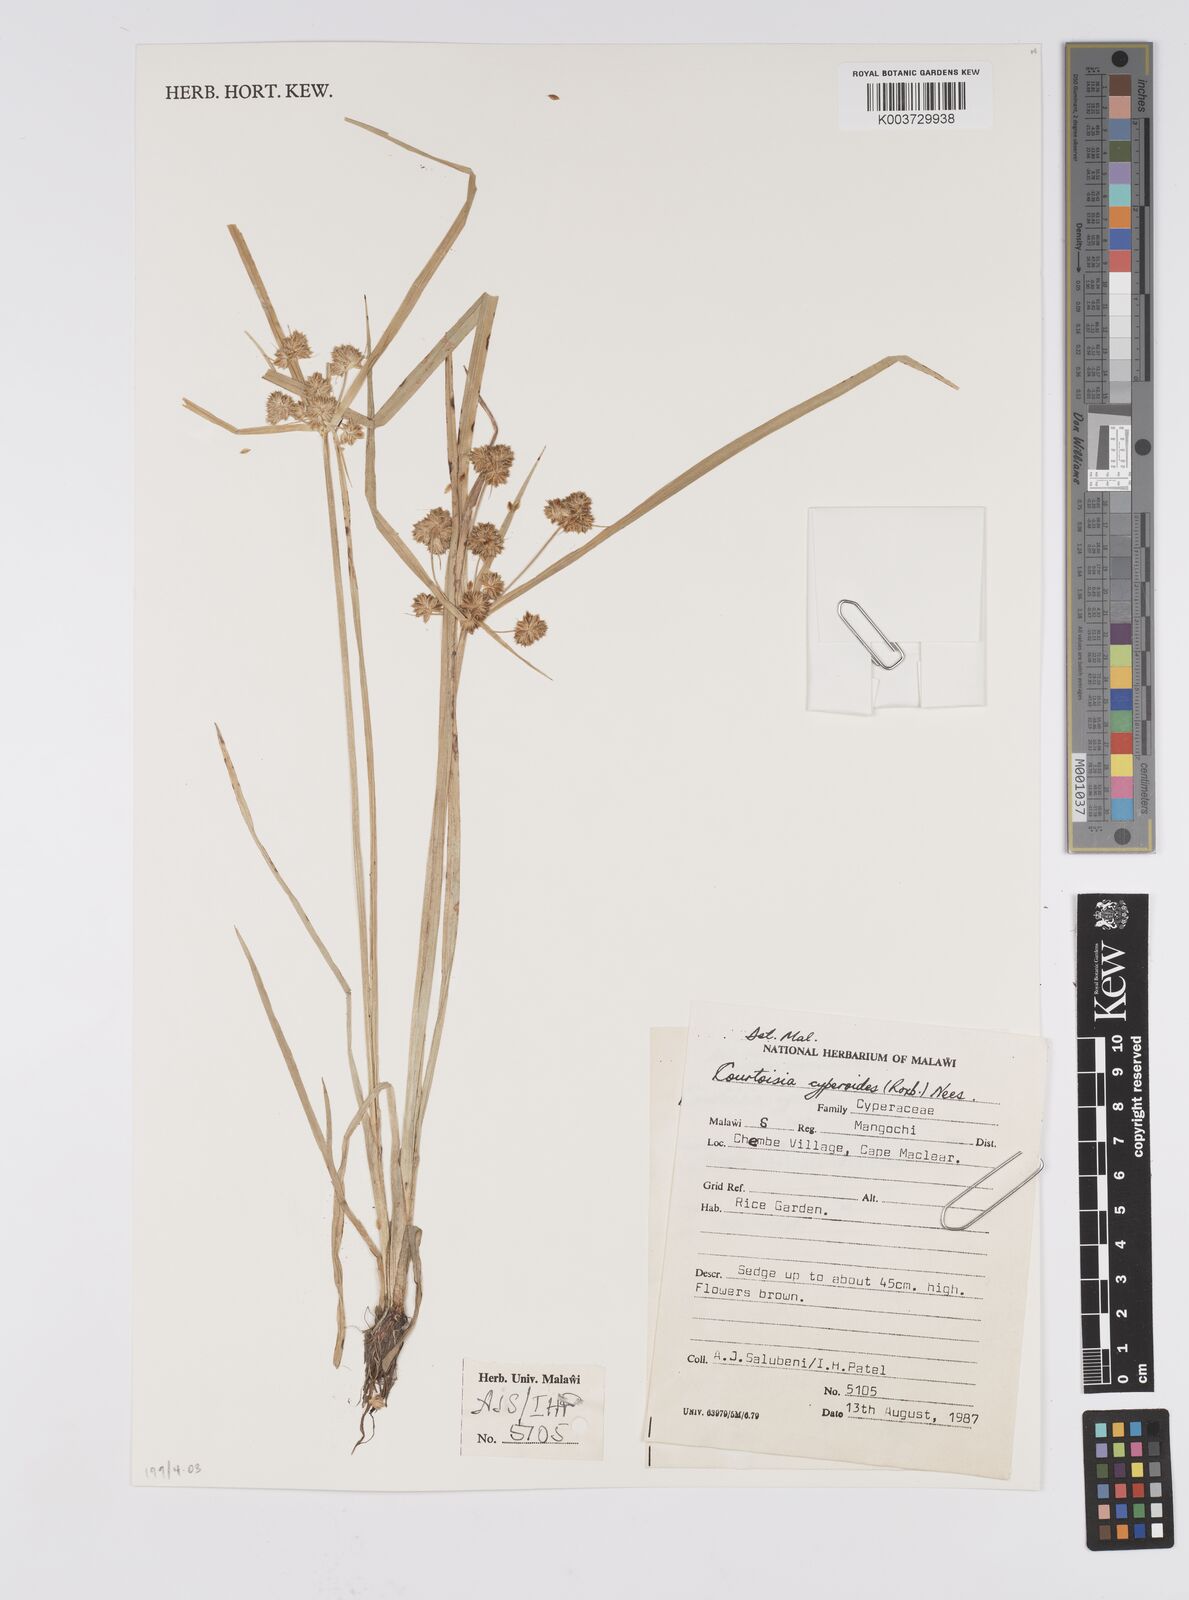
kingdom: Plantae
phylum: Tracheophyta
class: Liliopsida
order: Poales
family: Cyperaceae
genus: Cyperus
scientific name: Cyperus cyperoides
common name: Pacific island flat sedge
